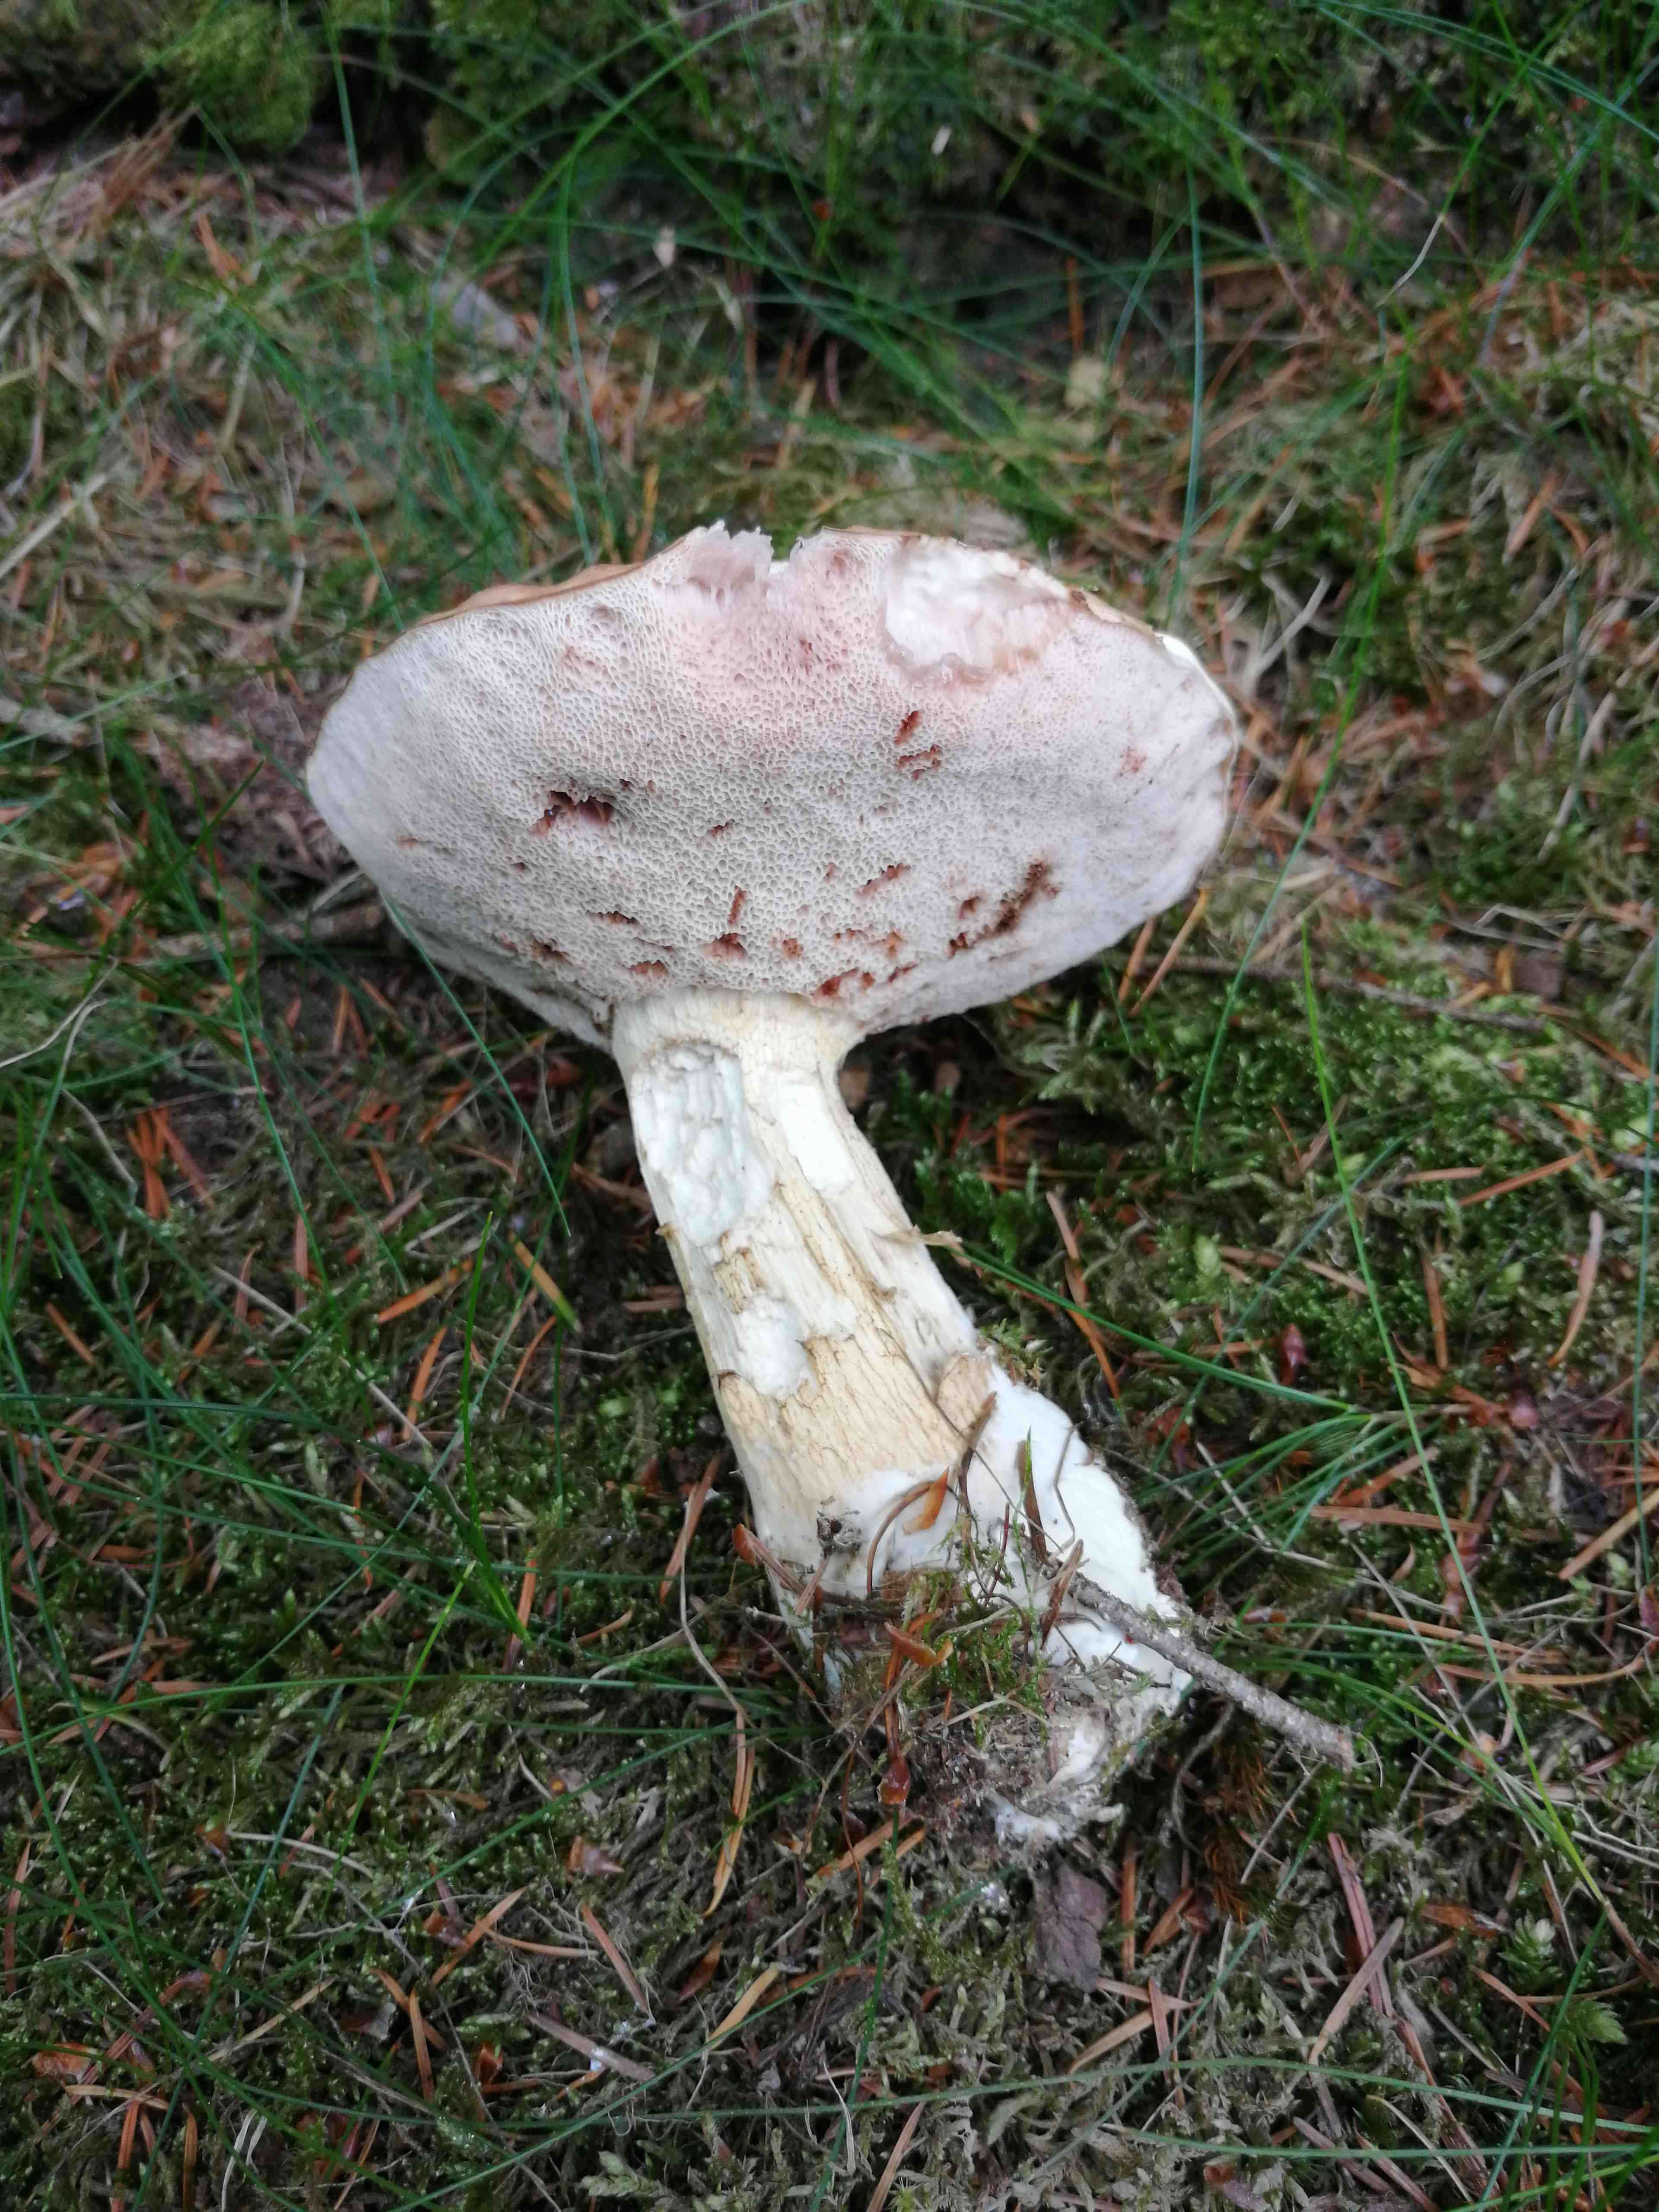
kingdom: Fungi
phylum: Basidiomycota
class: Agaricomycetes
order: Boletales
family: Boletaceae
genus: Tylopilus
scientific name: Tylopilus felleus
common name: galderørhat
